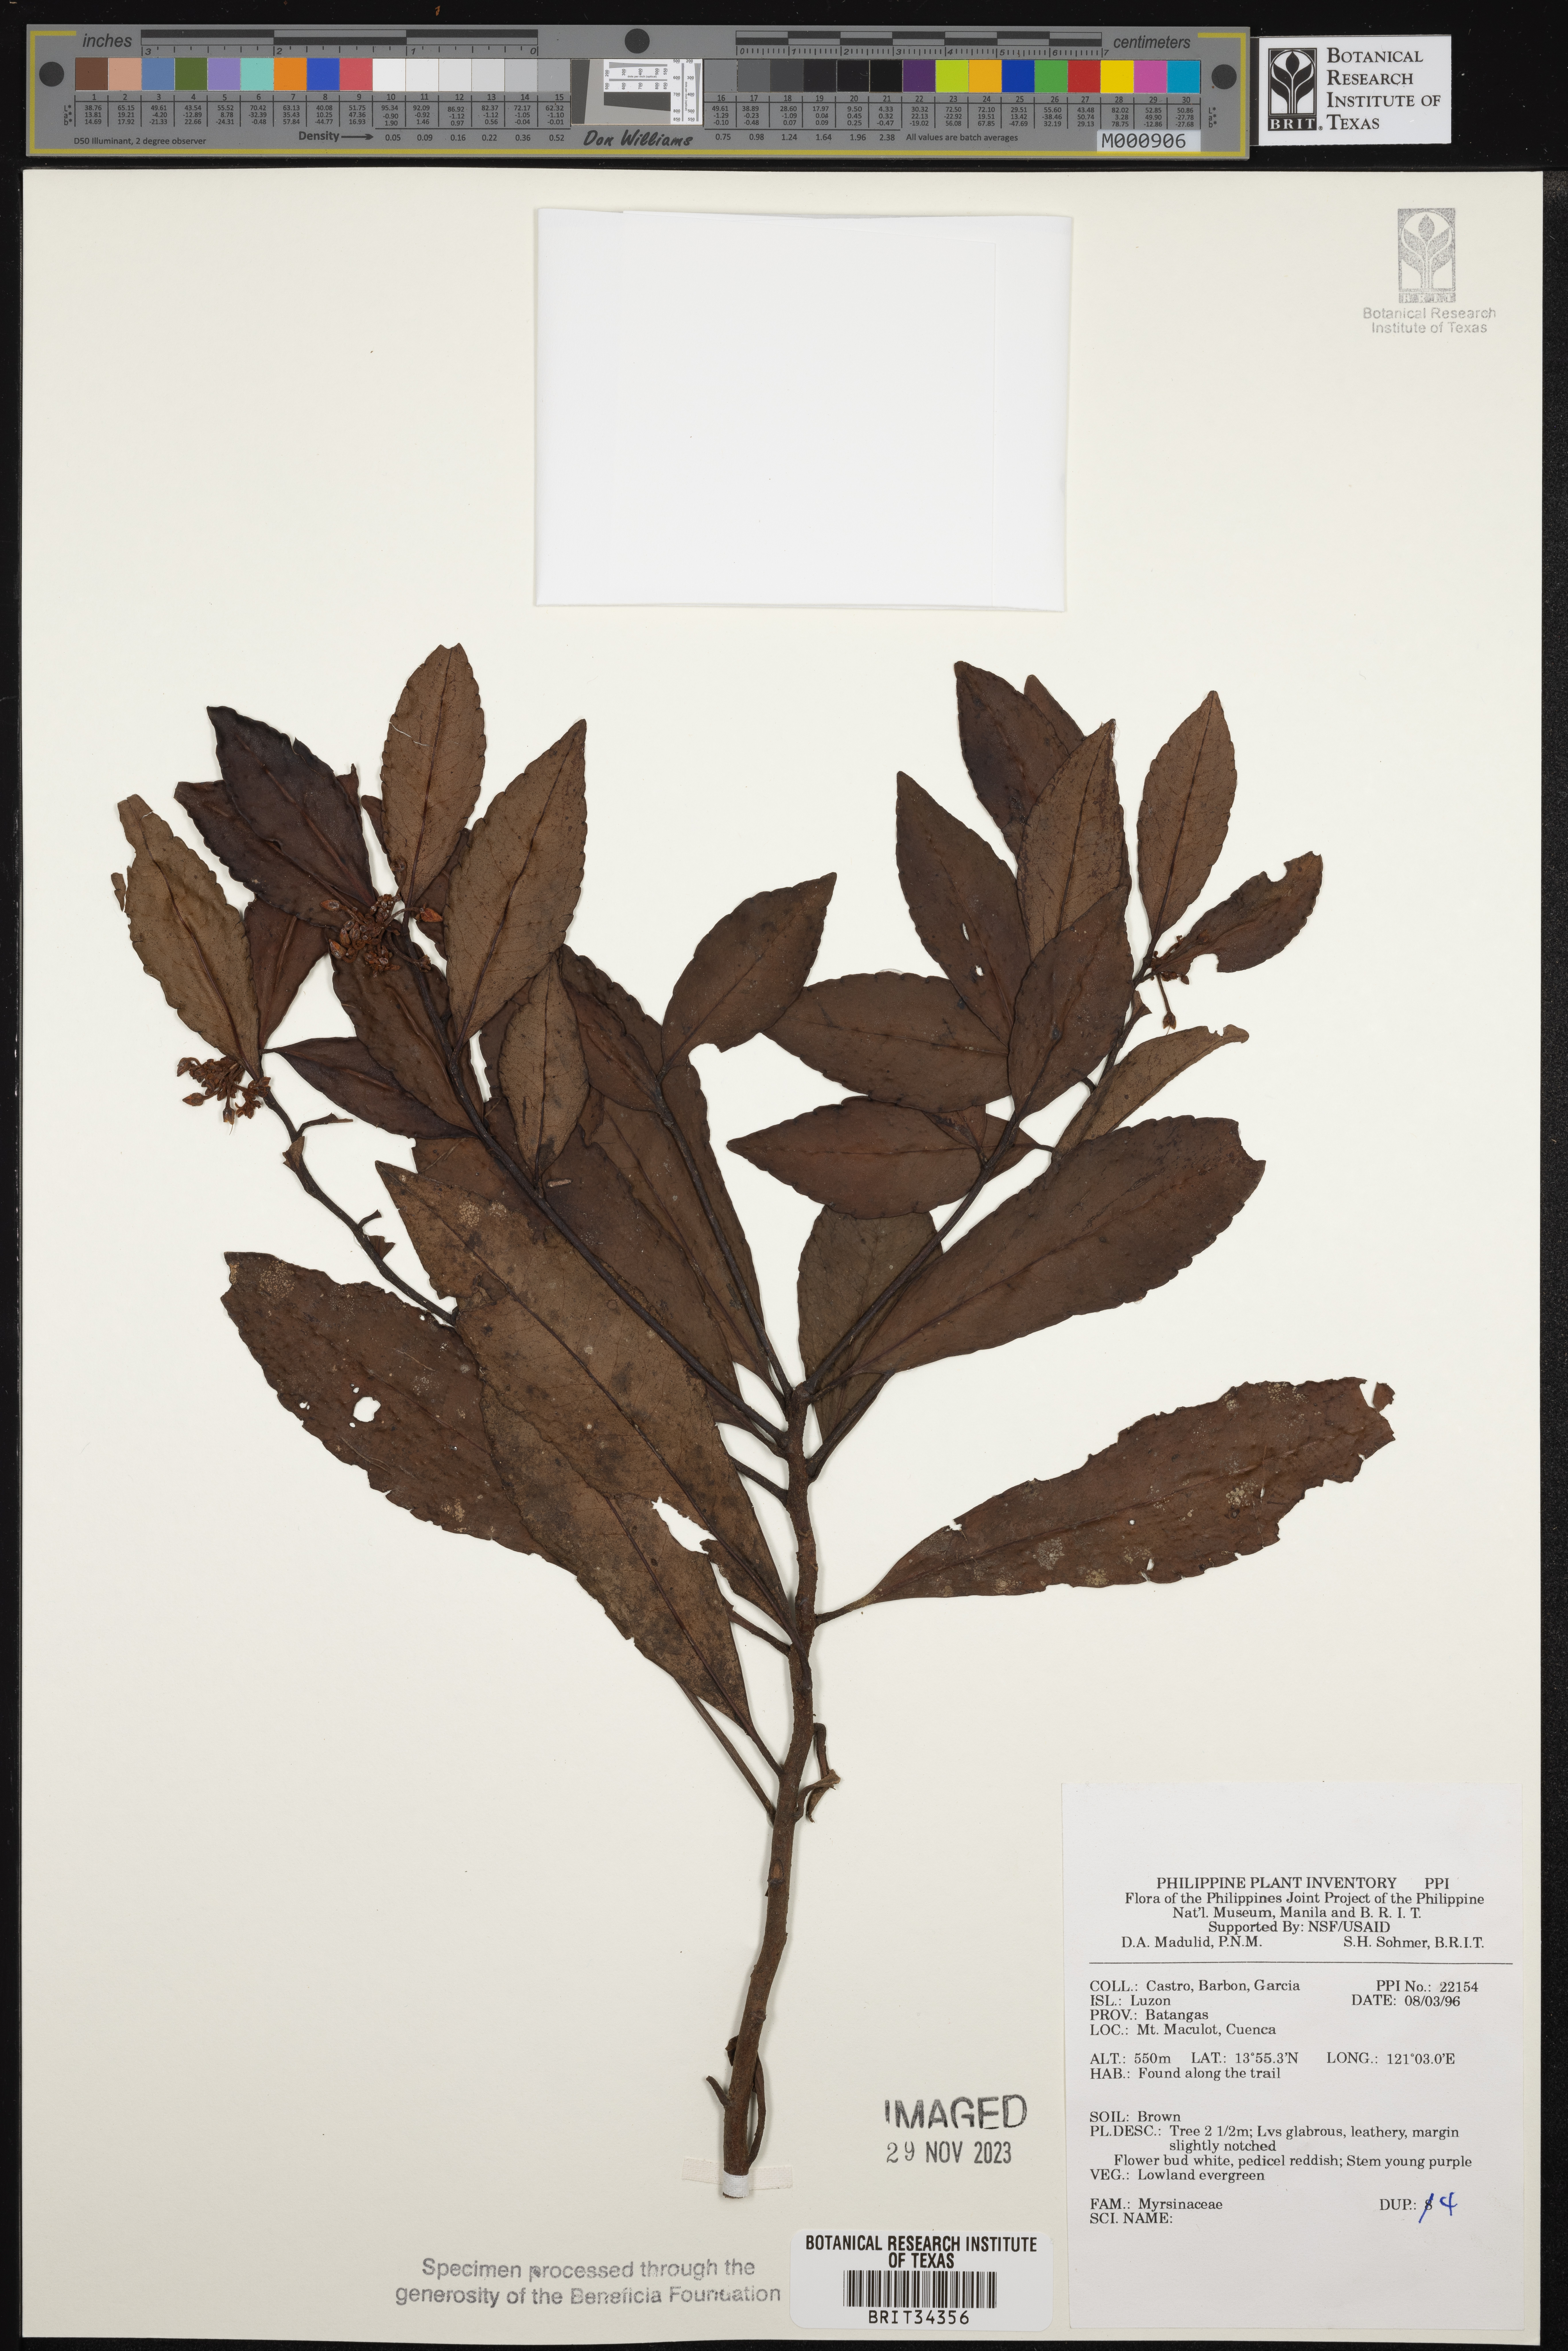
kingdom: Plantae
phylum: Tracheophyta
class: Magnoliopsida
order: Ericales
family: Primulaceae
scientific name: Primulaceae
